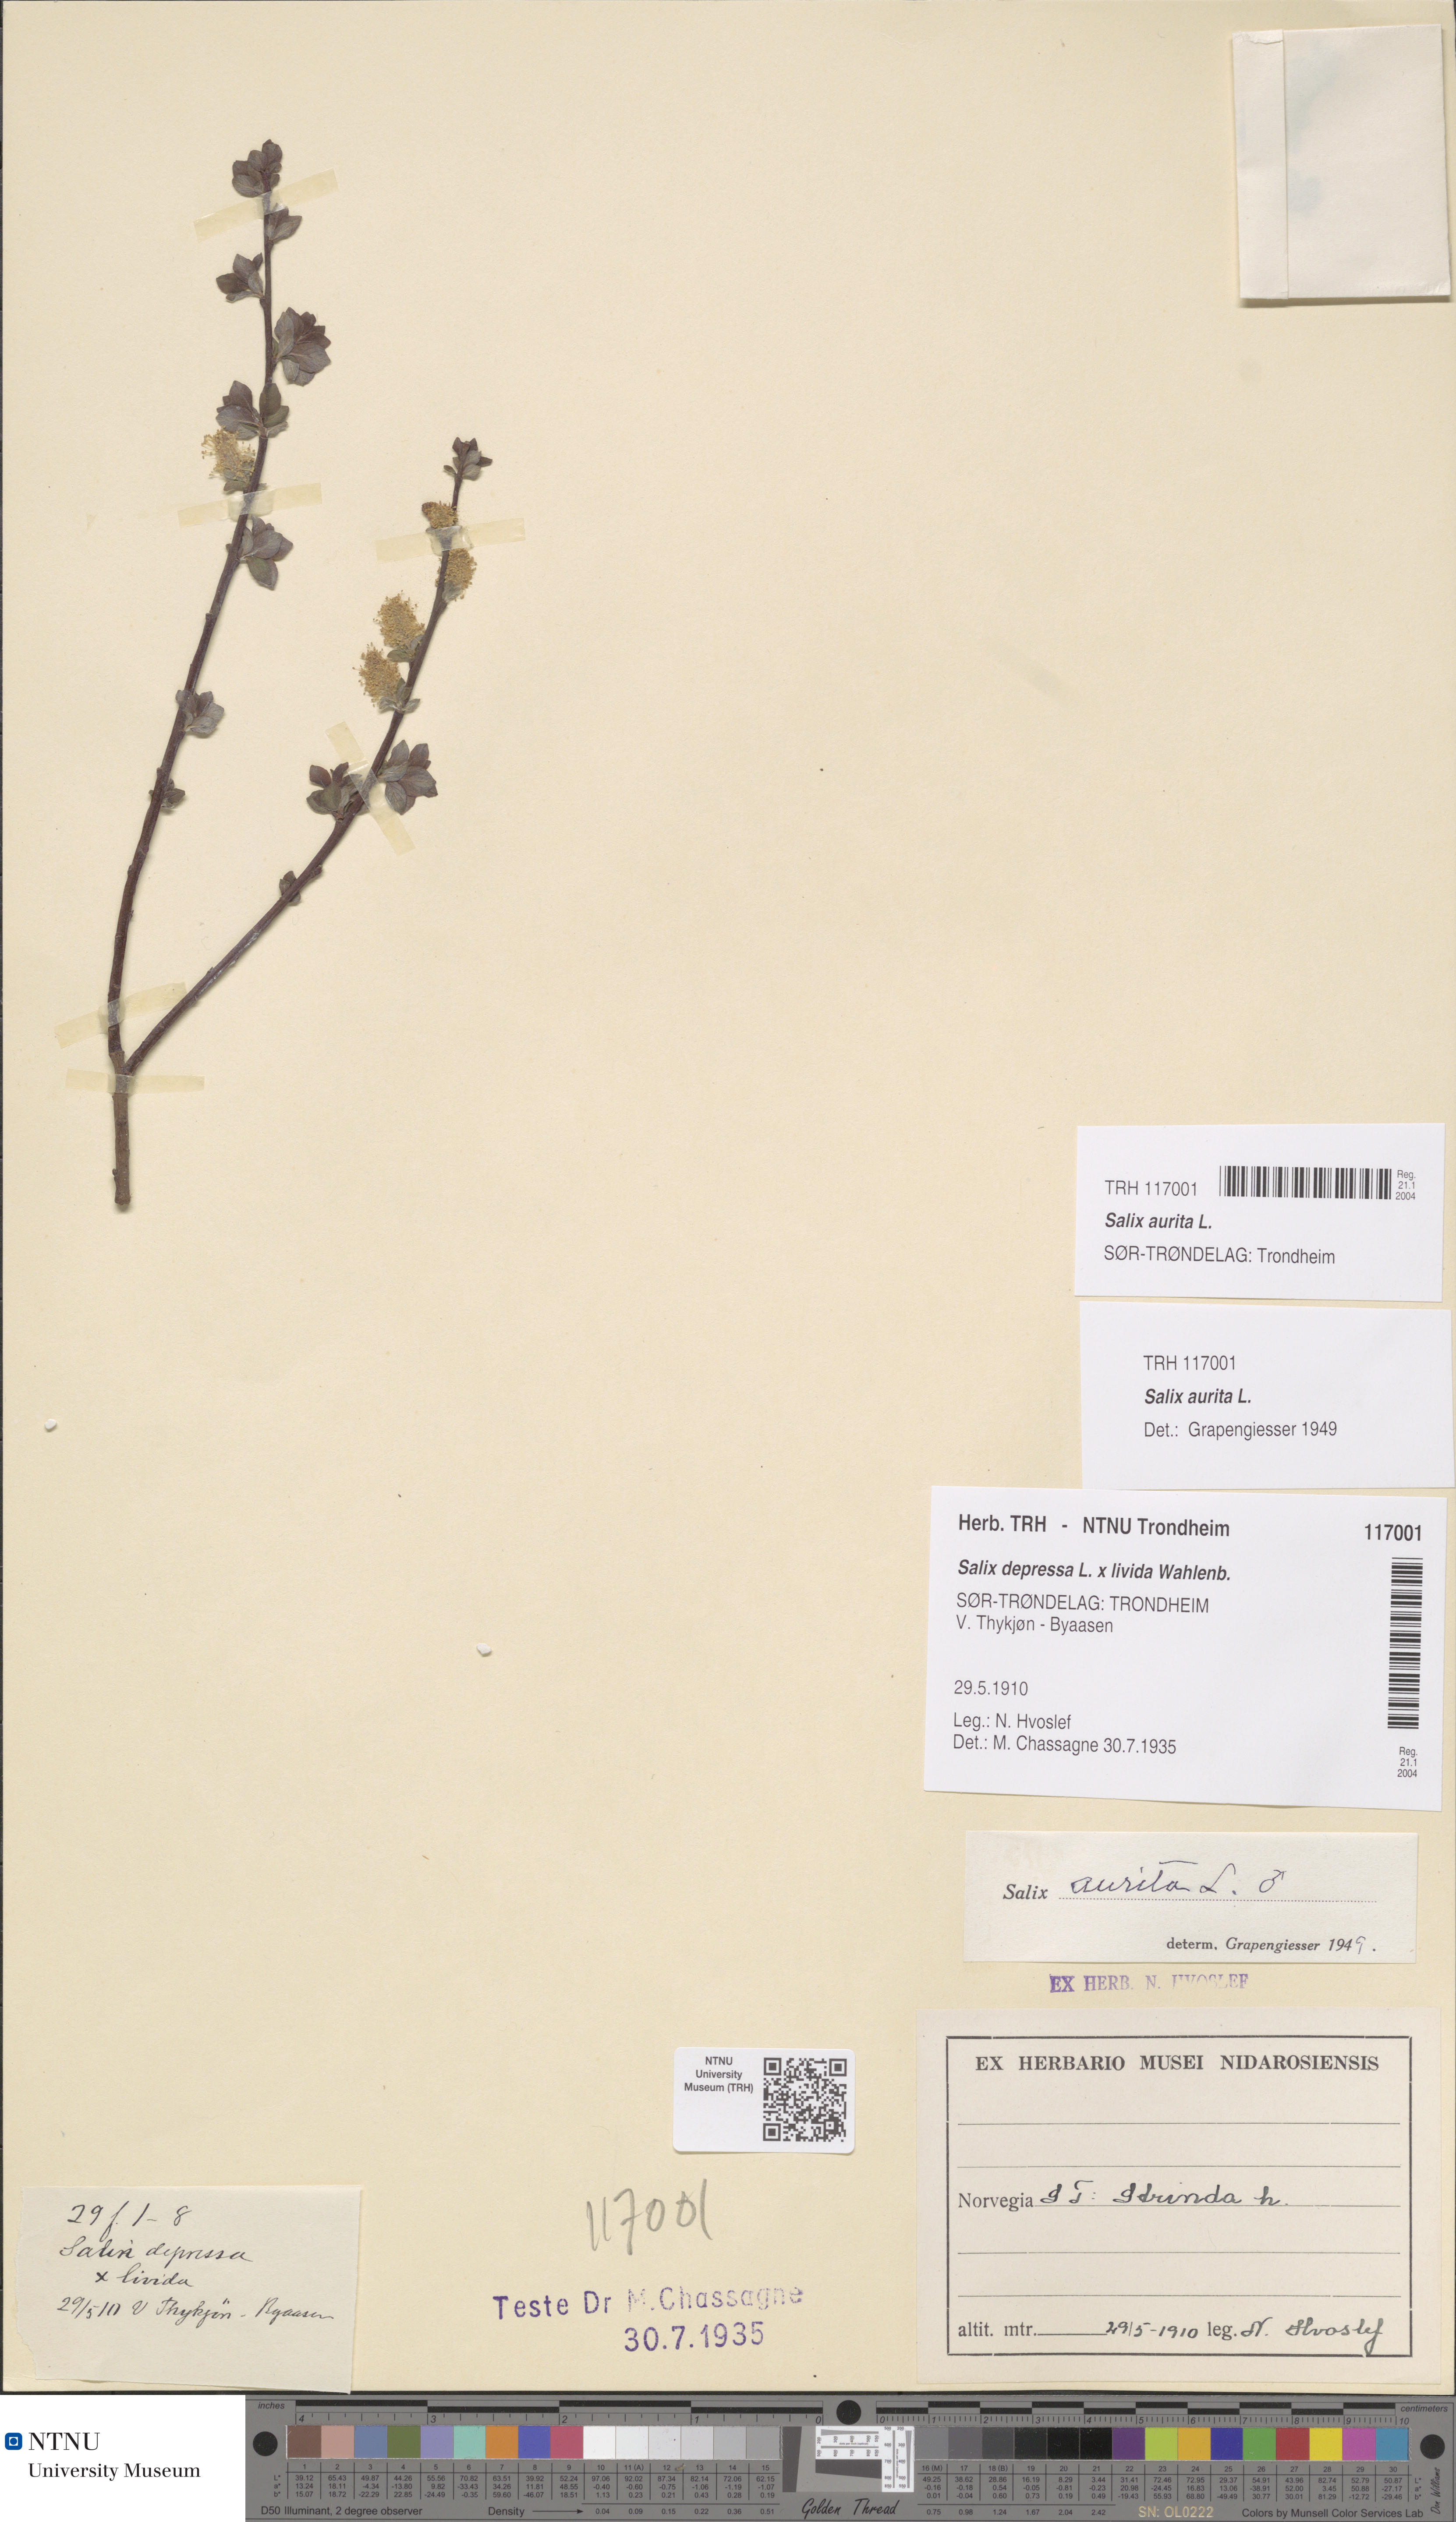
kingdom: Plantae
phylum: Tracheophyta
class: Magnoliopsida
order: Malpighiales
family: Salicaceae
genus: Salix
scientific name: Salix aurita
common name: Eared willow
